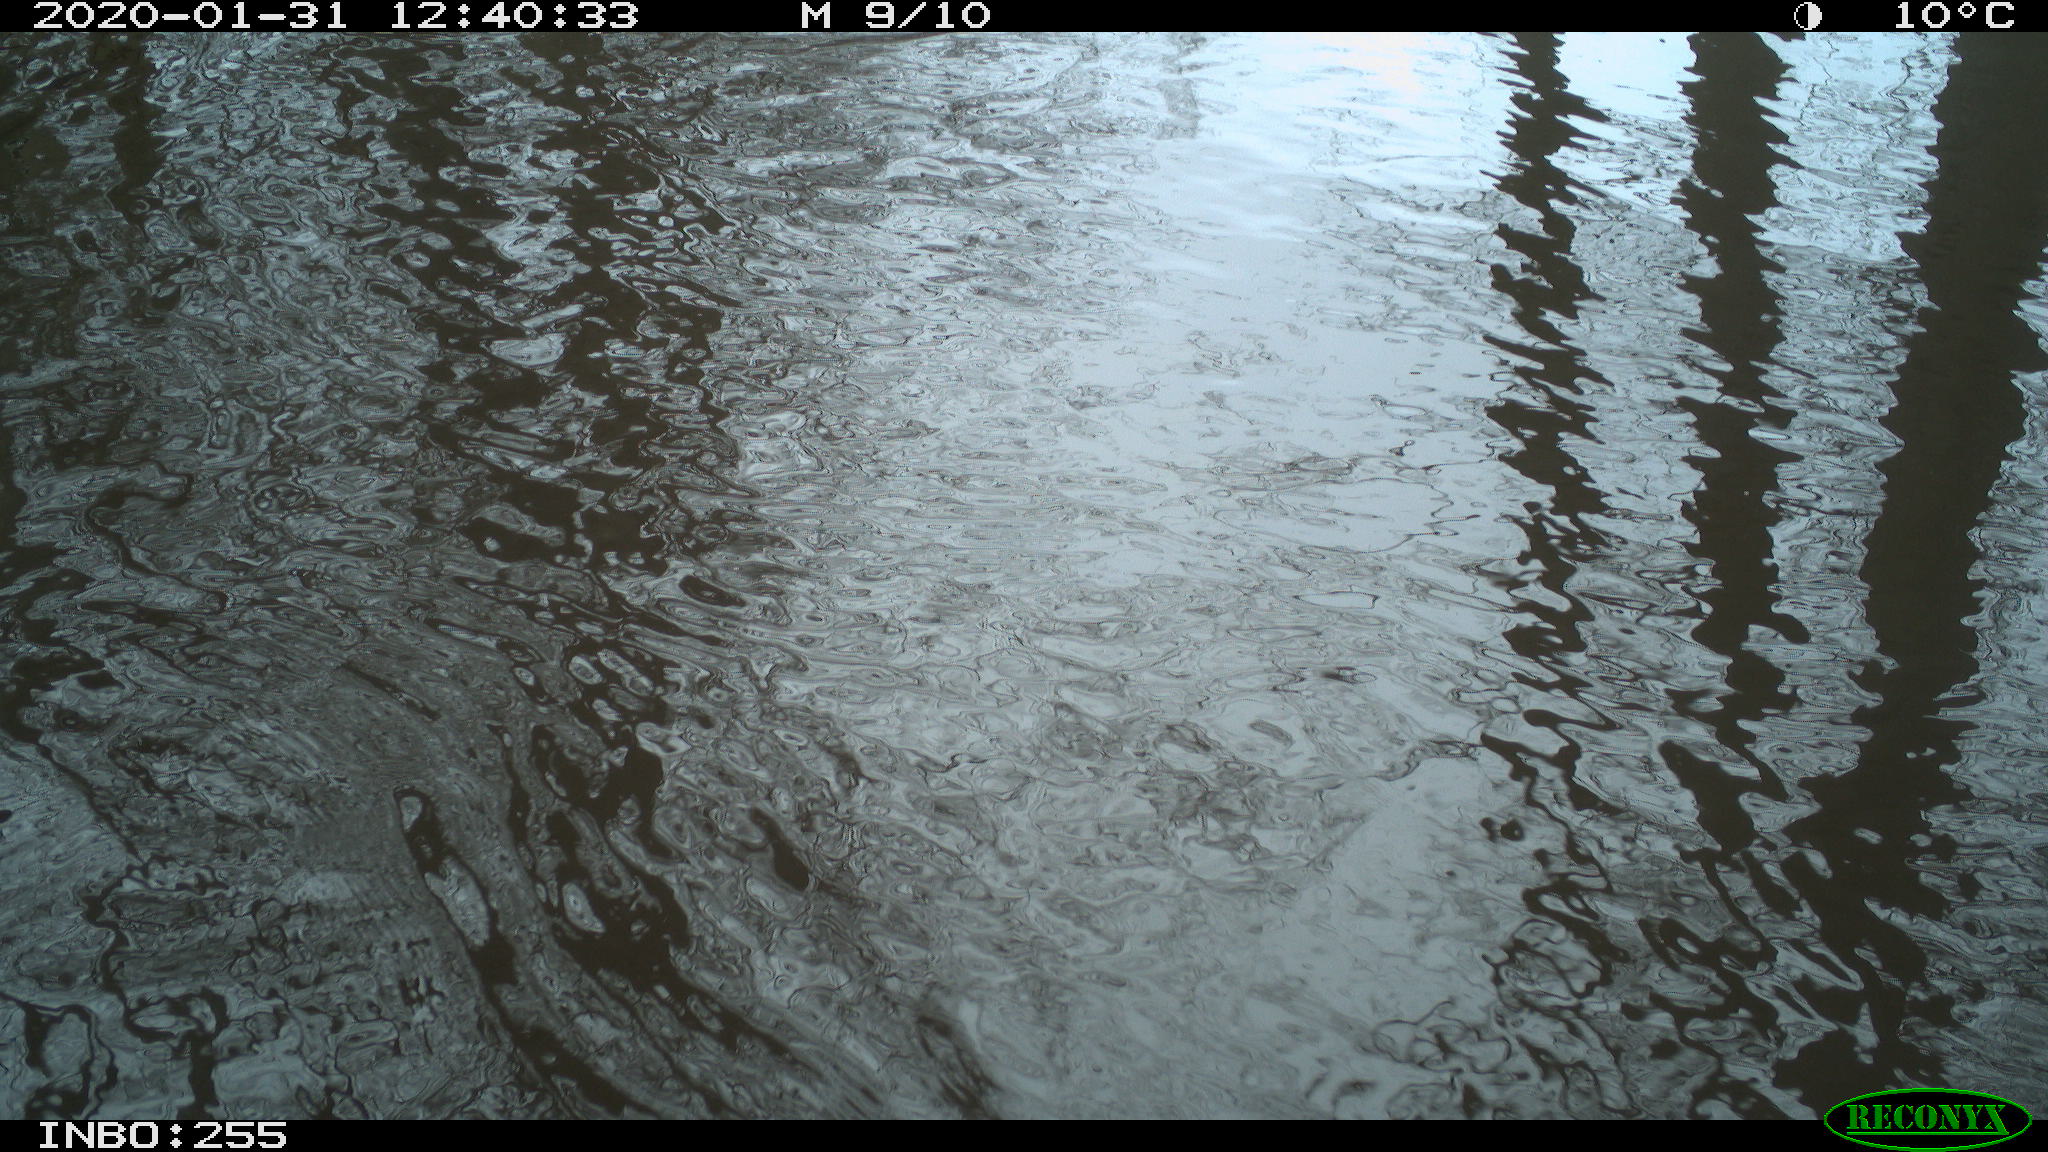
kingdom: Animalia
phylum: Chordata
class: Aves
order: Gruiformes
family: Rallidae
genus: Gallinula
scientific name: Gallinula chloropus
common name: Common moorhen
